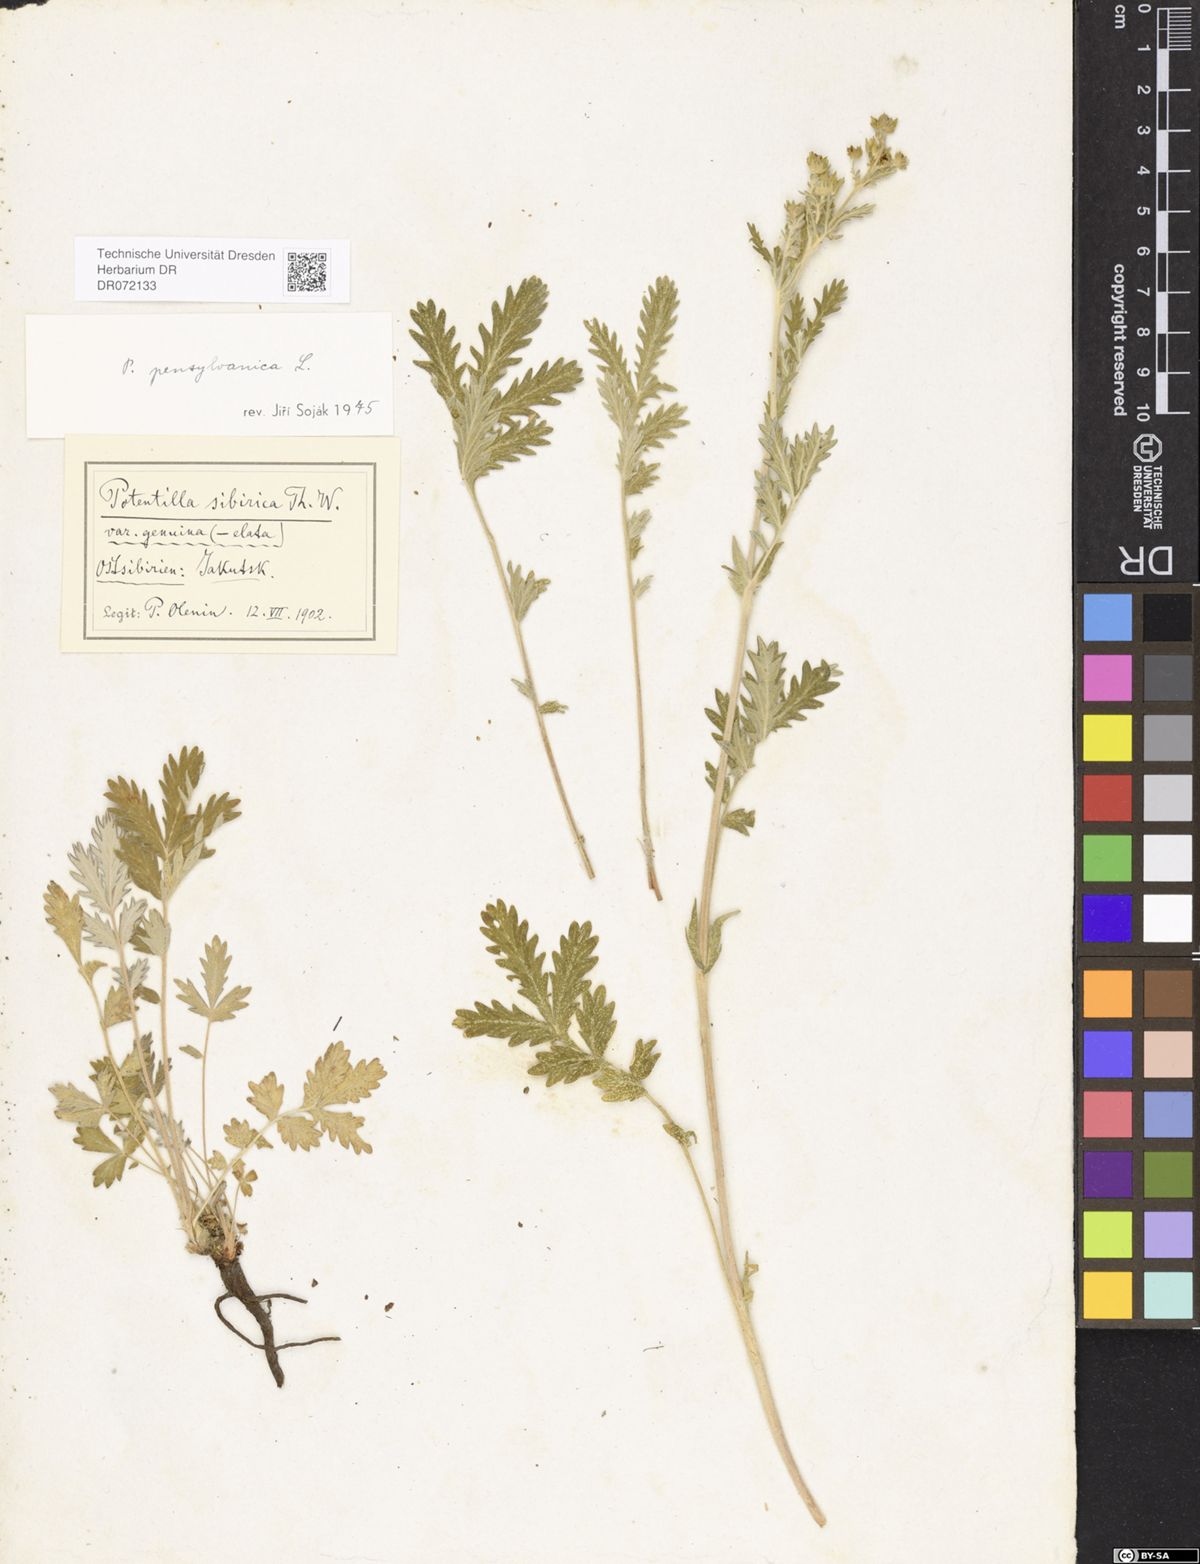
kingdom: Plantae
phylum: Tracheophyta
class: Magnoliopsida
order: Rosales
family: Rosaceae
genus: Potentilla
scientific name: Potentilla pensylvanica
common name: Pennsylvania cinquefoil
